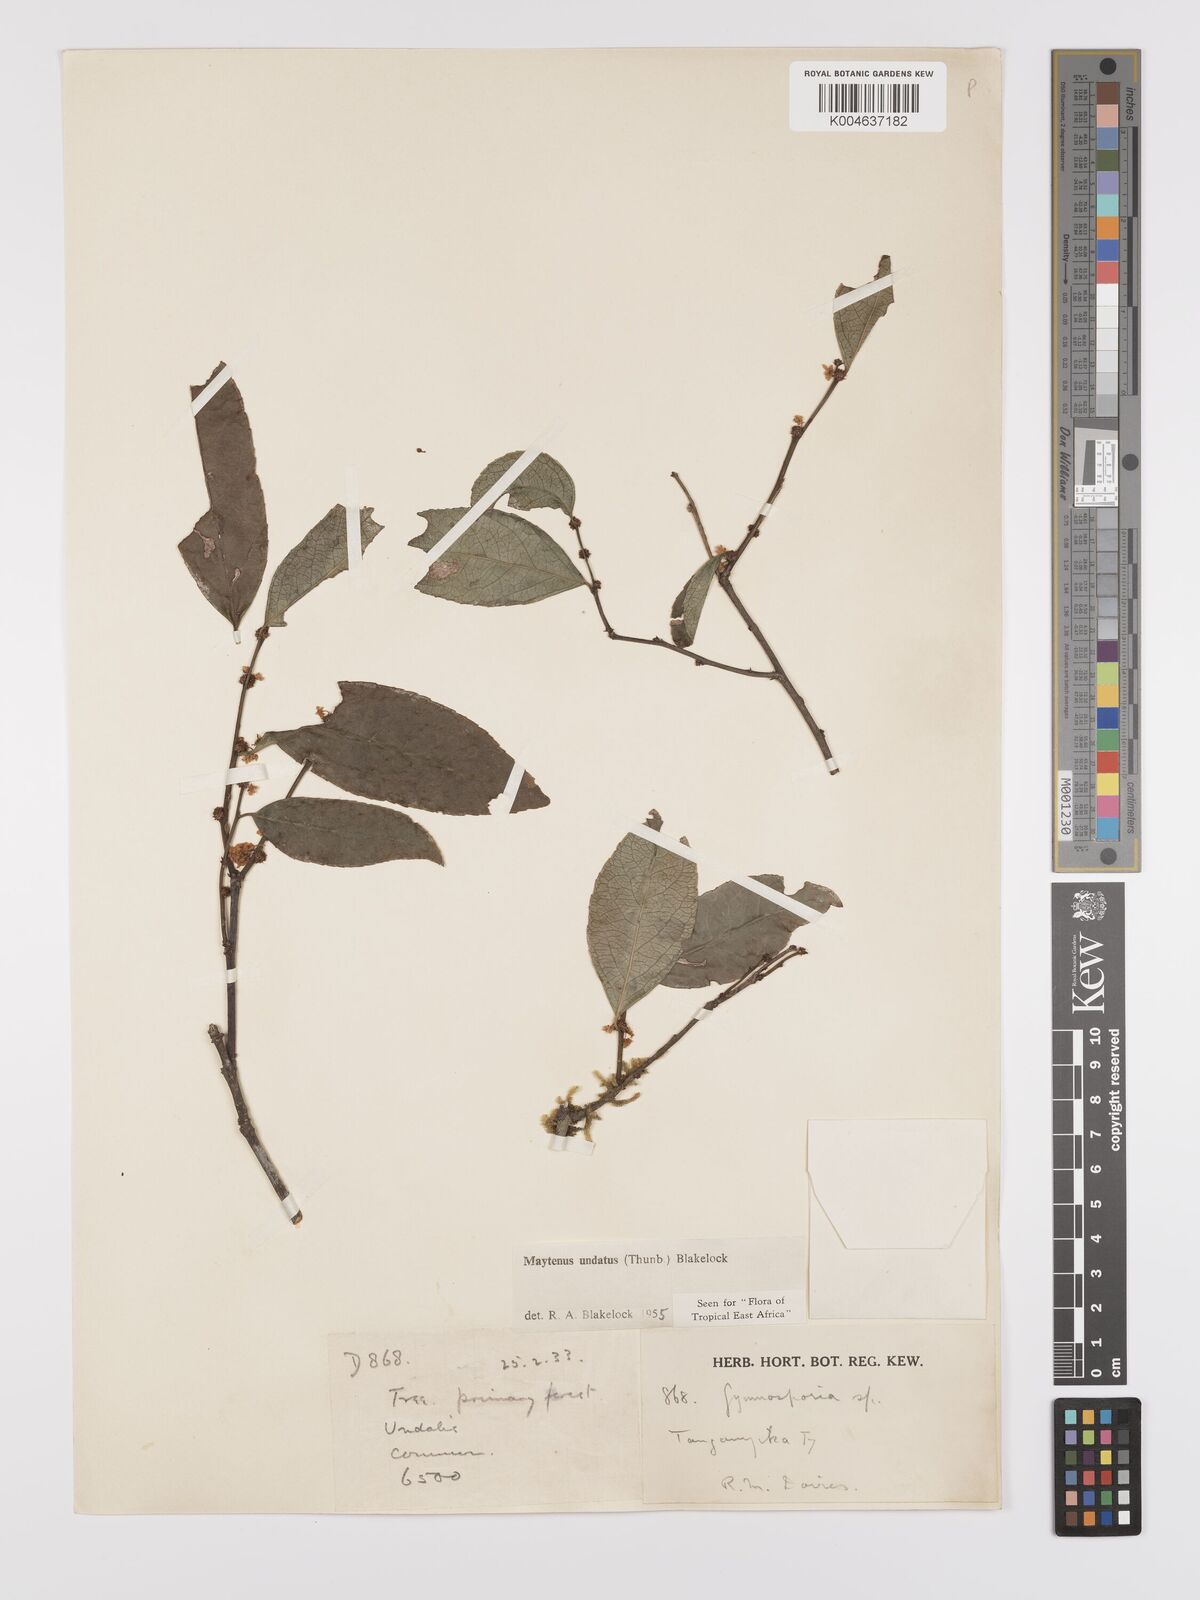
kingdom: Plantae
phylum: Tracheophyta
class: Magnoliopsida
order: Celastrales
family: Celastraceae
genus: Gymnosporia
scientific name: Gymnosporia undata
